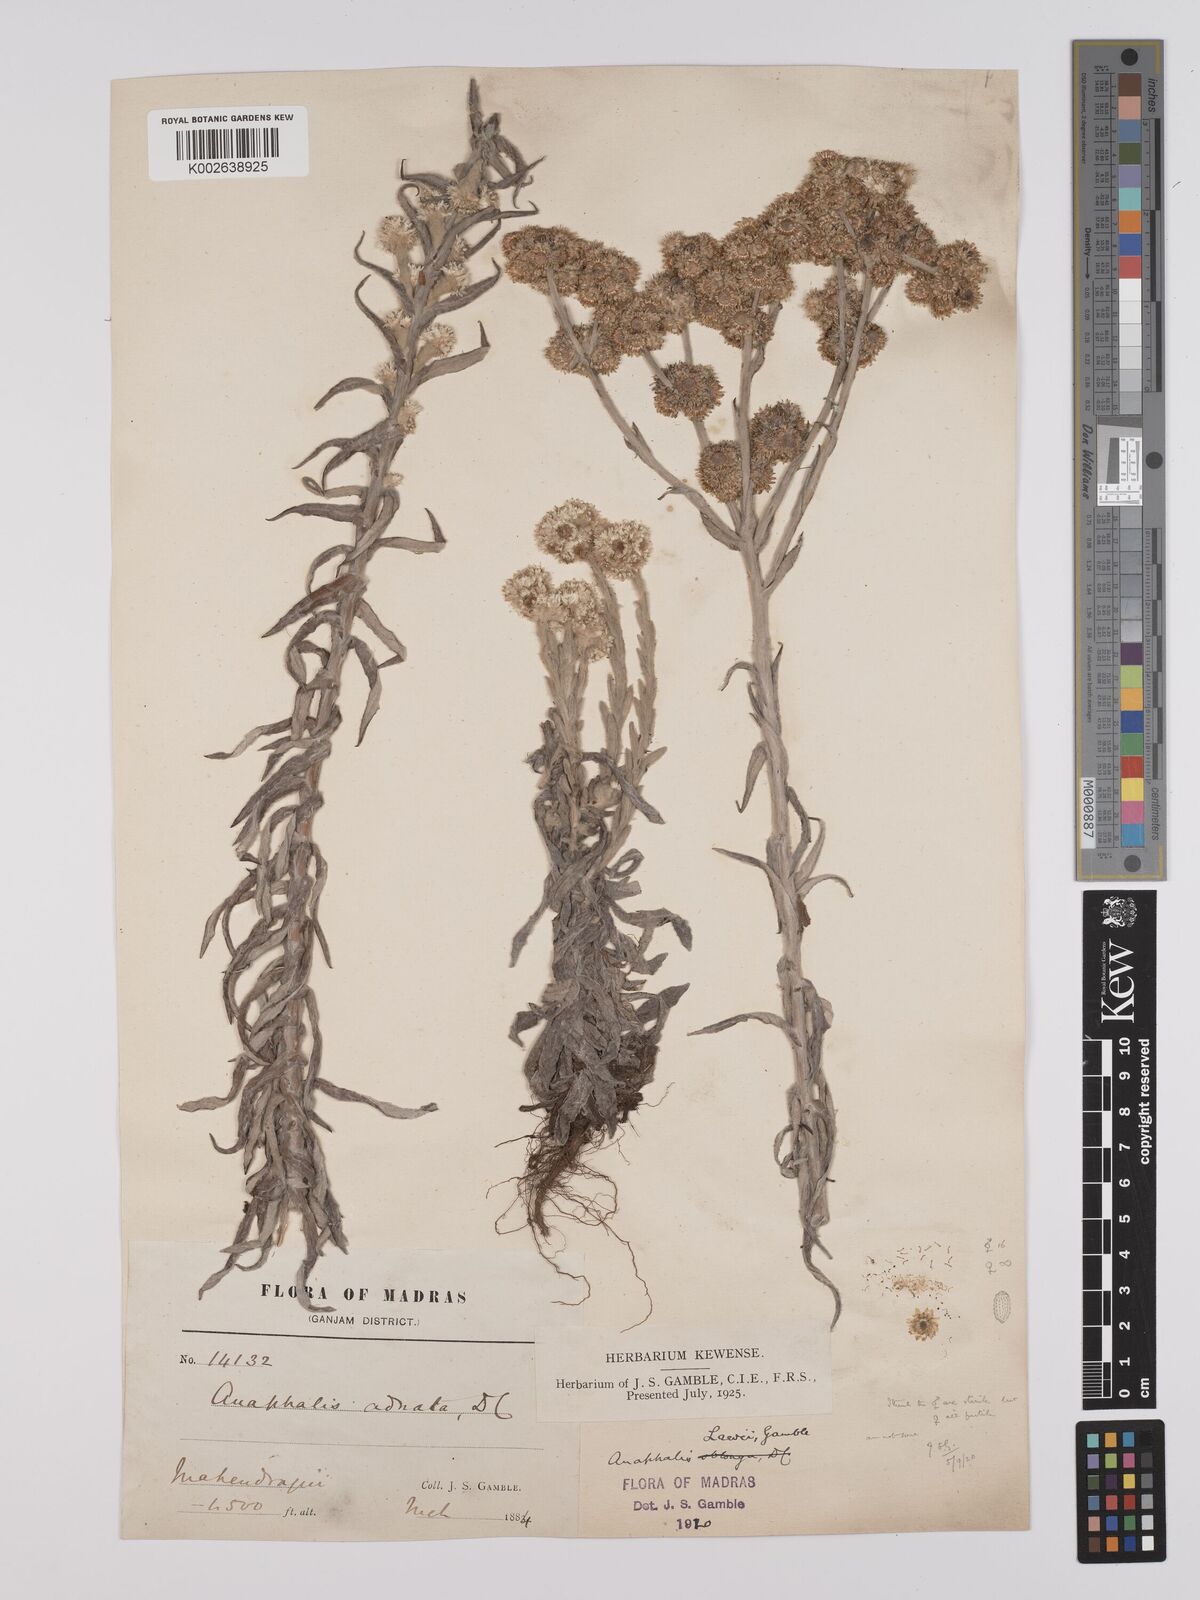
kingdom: Plantae
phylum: Tracheophyta
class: Magnoliopsida
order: Asterales
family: Asteraceae
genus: Anaphalis
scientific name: Anaphalis lawii
